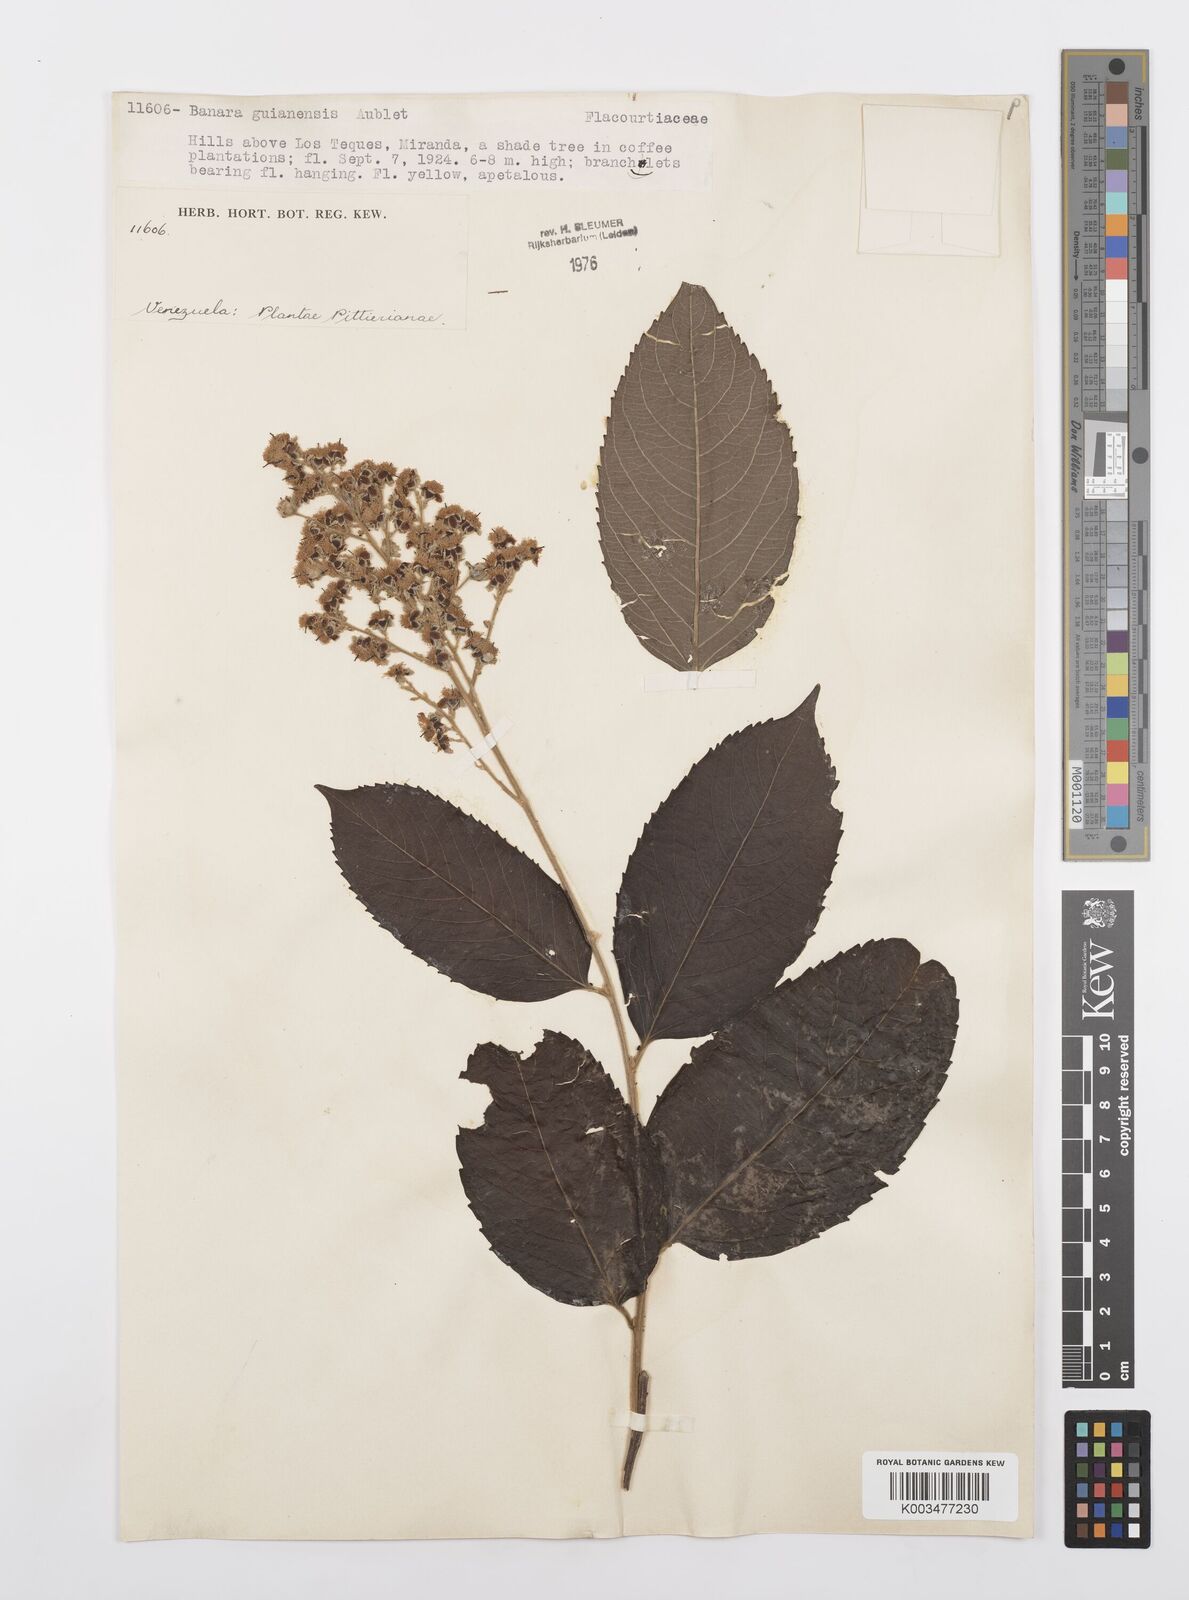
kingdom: Plantae
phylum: Tracheophyta
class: Magnoliopsida
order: Malpighiales
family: Salicaceae
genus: Banara
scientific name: Banara guianensis
